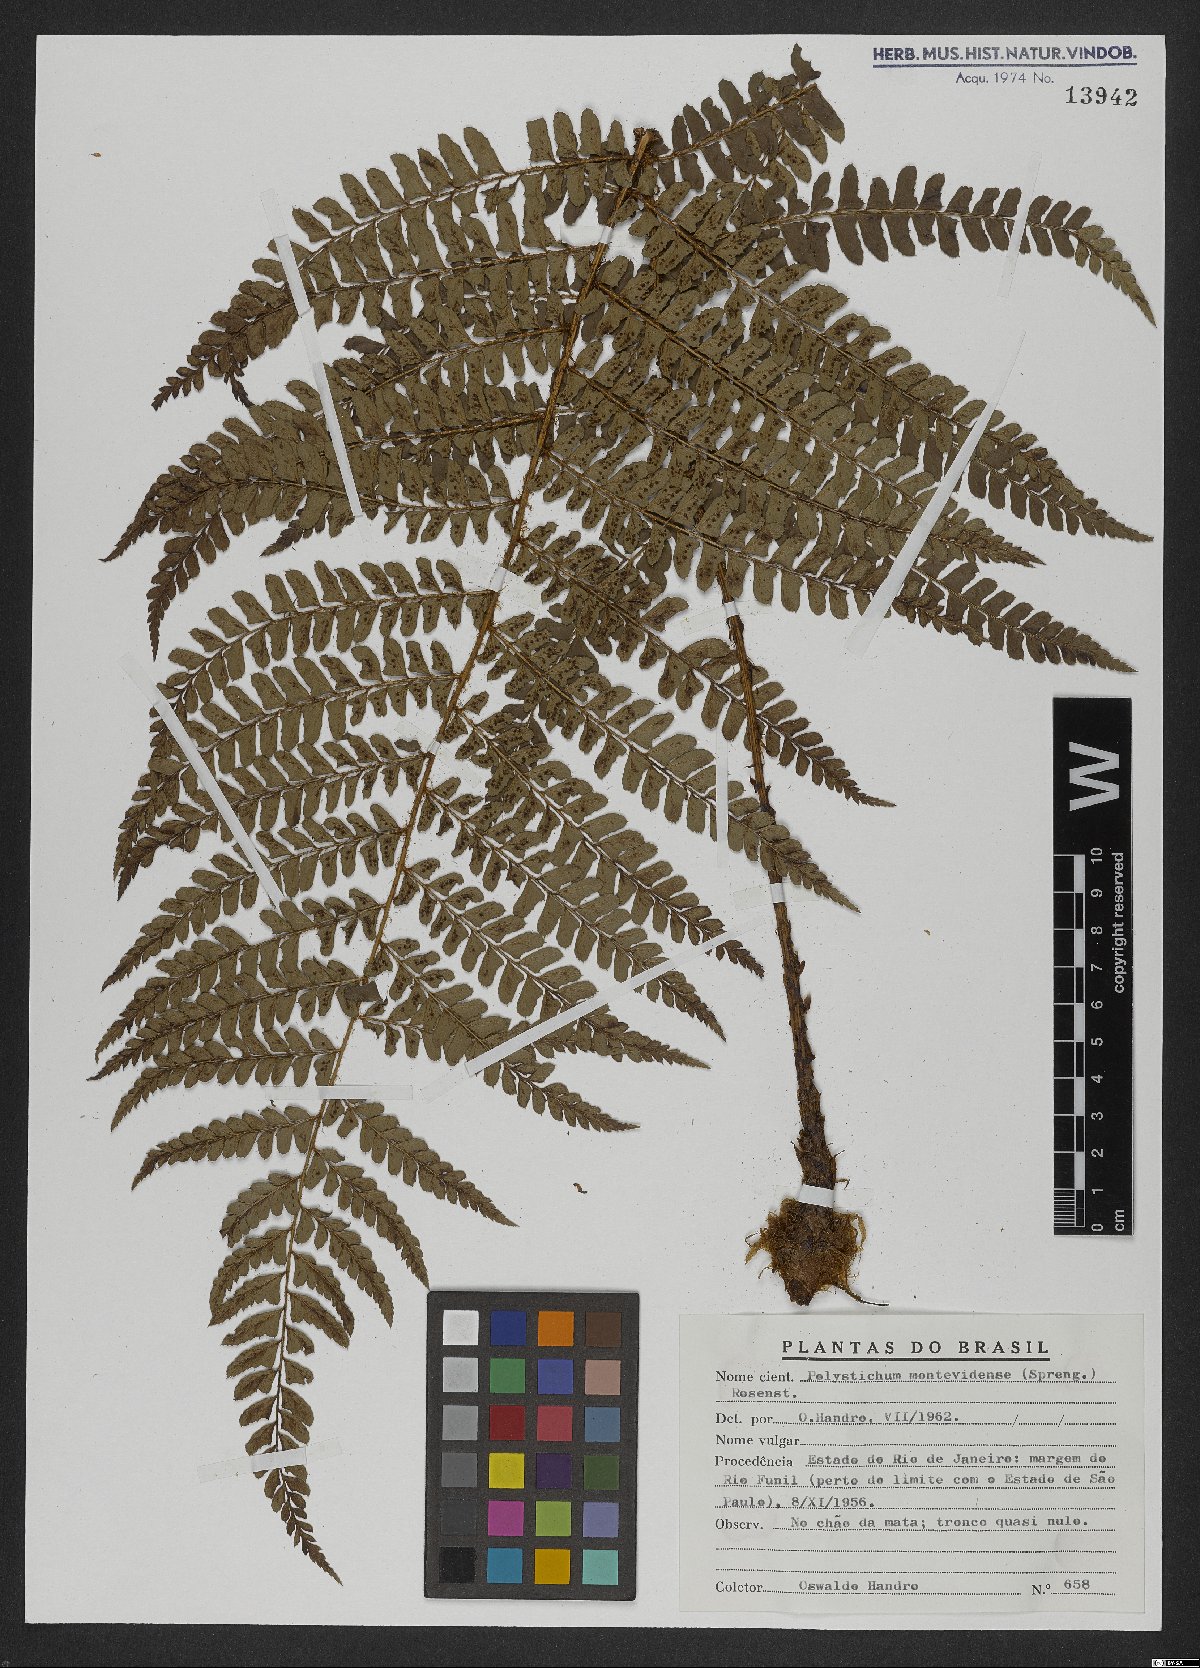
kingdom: Plantae
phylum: Tracheophyta
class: Polypodiopsida
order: Polypodiales
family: Dryopteridaceae
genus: Polystichum
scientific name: Polystichum montevidense
